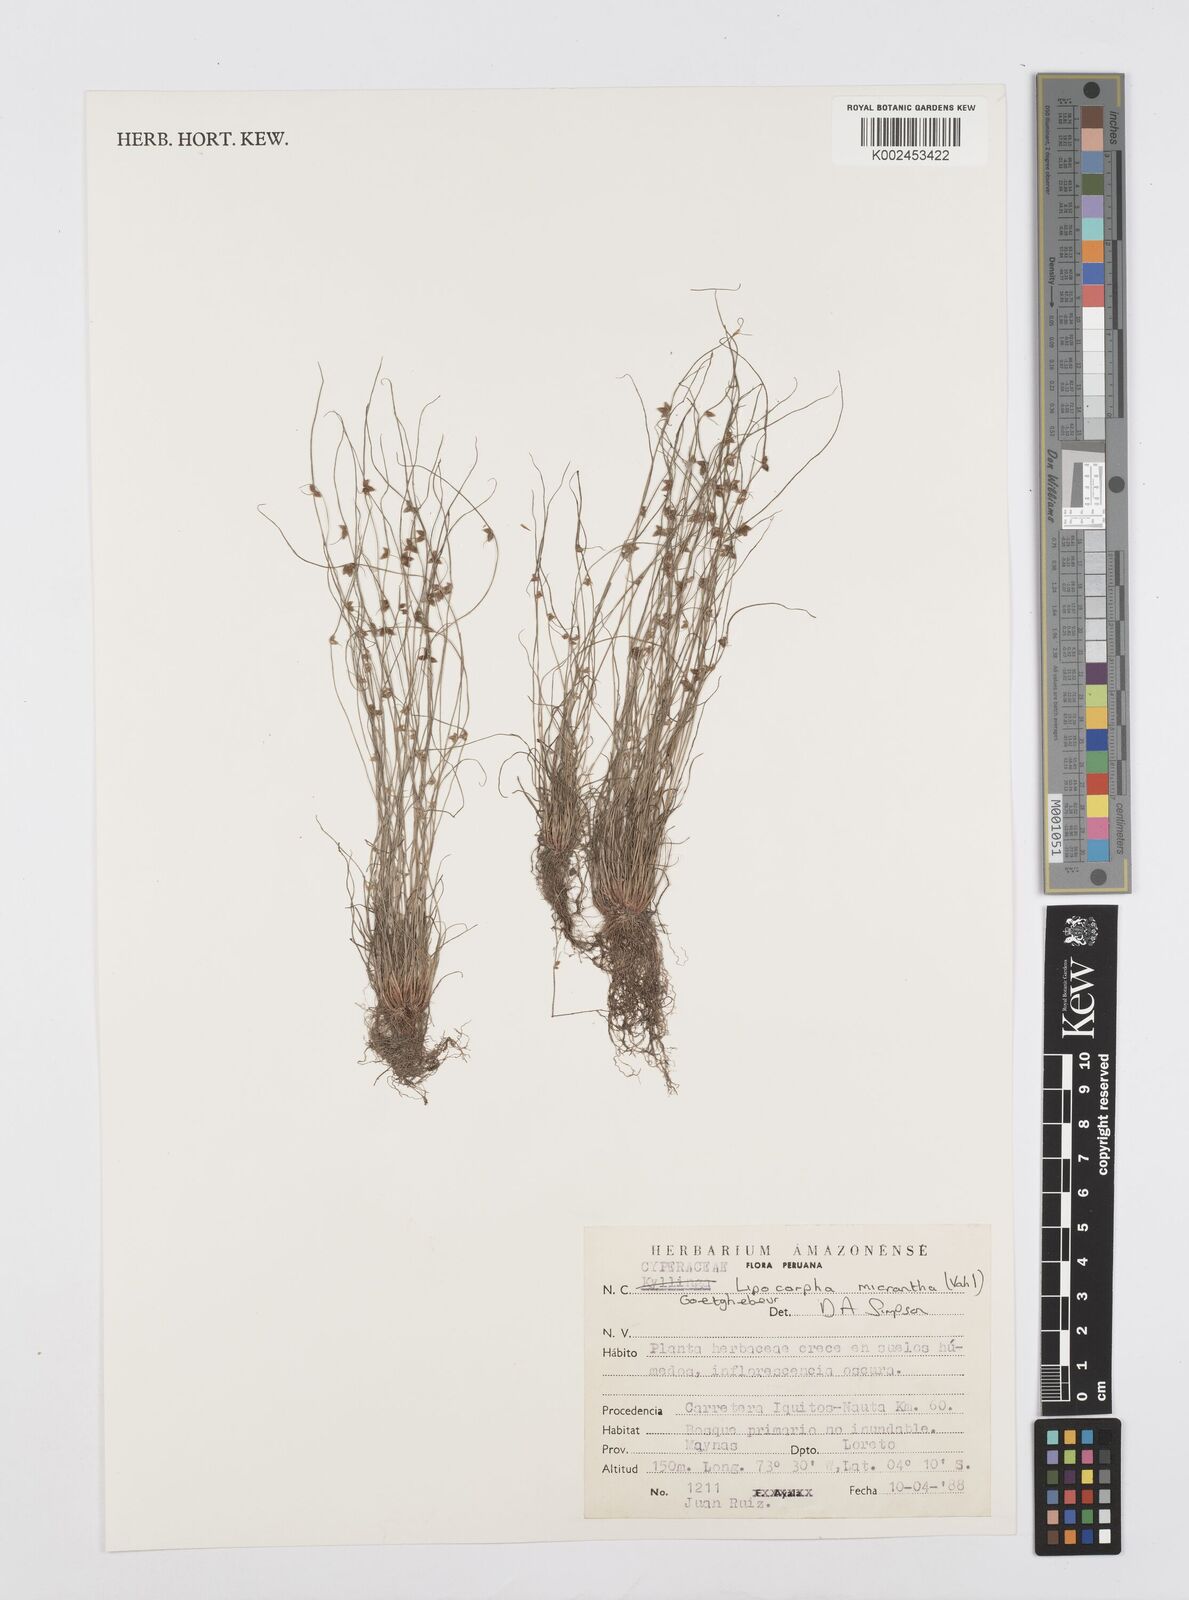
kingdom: Plantae
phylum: Tracheophyta
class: Liliopsida
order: Poales
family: Cyperaceae
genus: Cyperus
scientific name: Cyperus dentatus
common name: Dentate umbrella sedge
